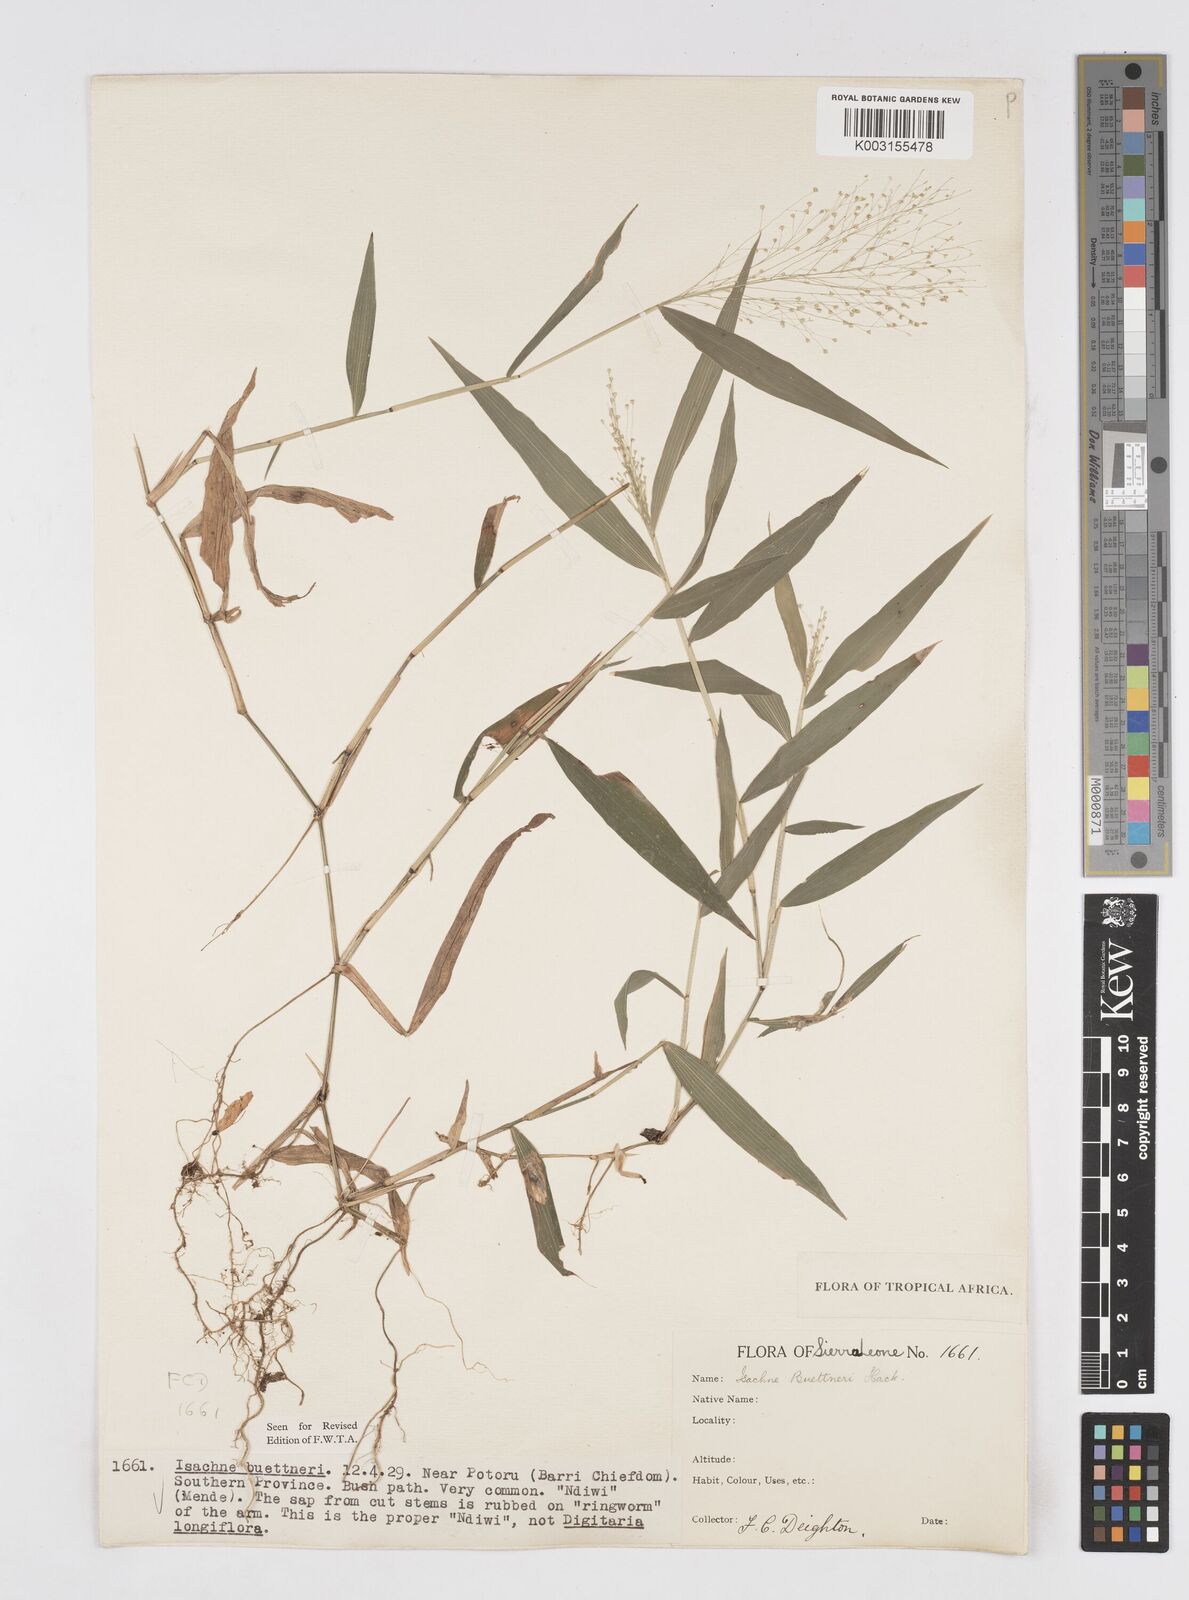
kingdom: Plantae
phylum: Tracheophyta
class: Liliopsida
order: Poales
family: Poaceae
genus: Isachne
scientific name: Isachne albens
